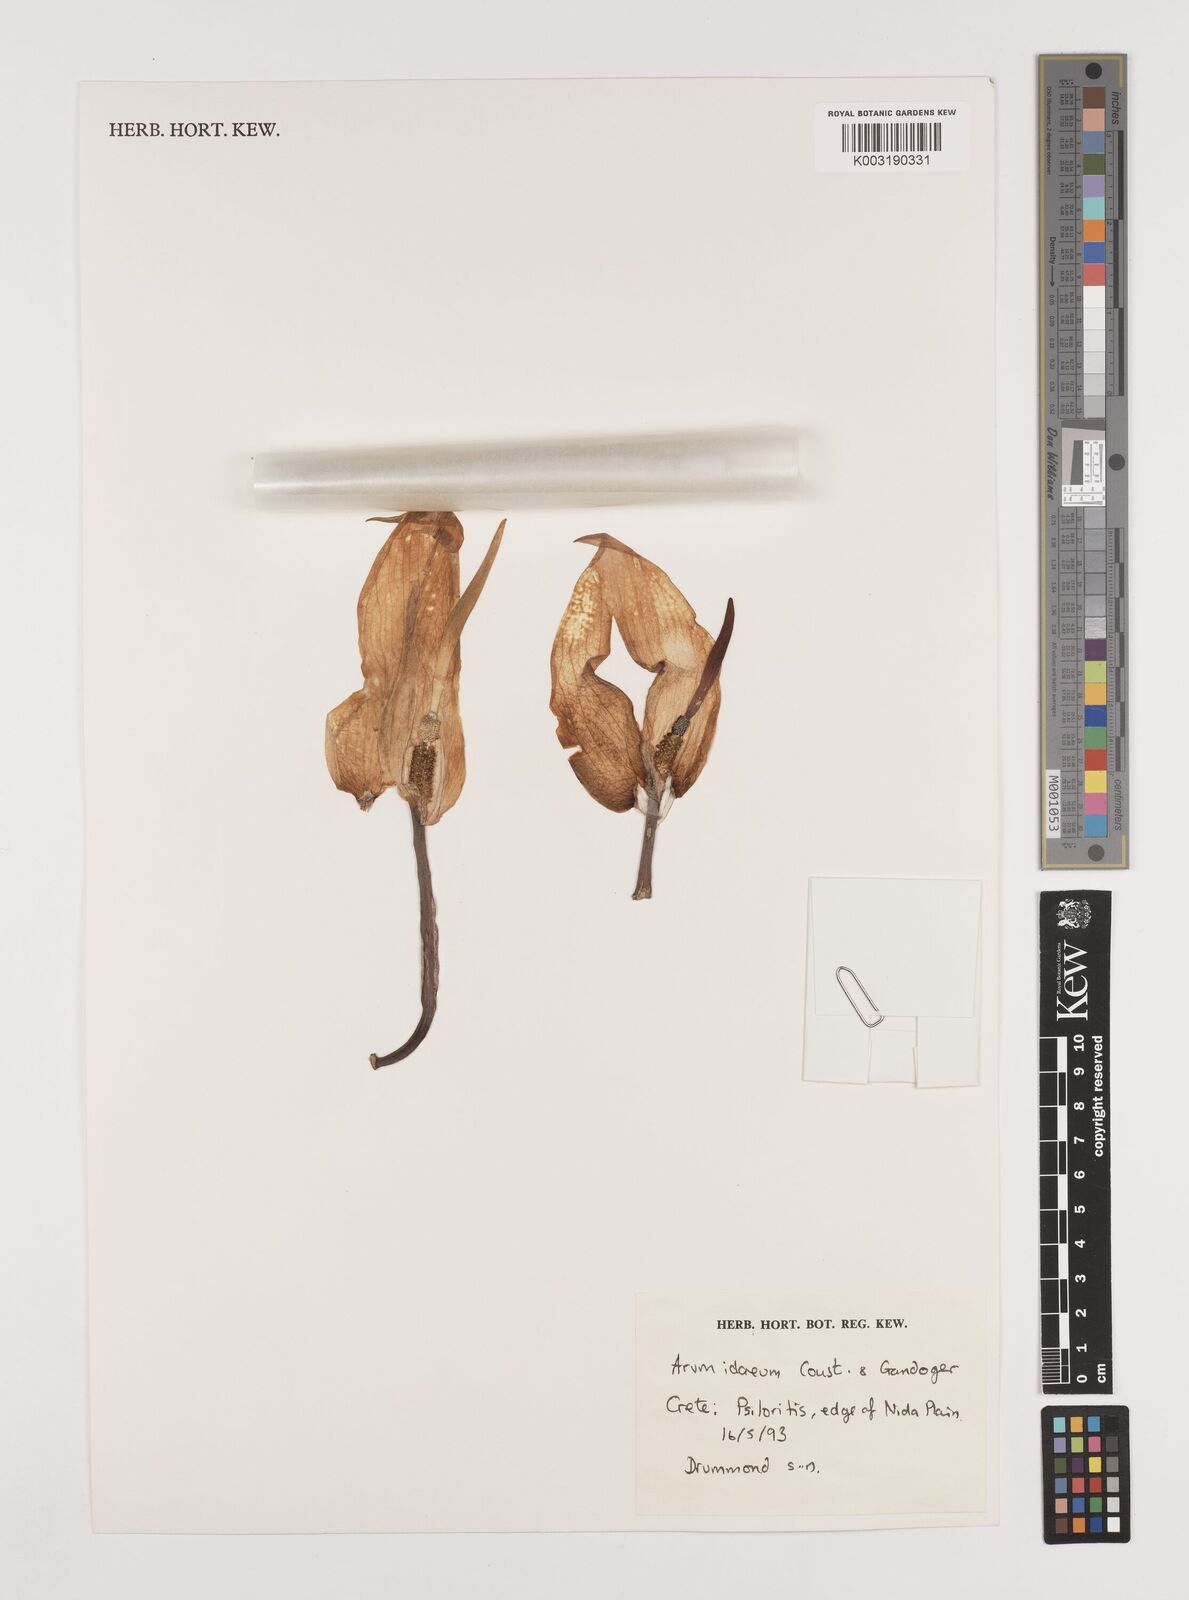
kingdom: Plantae
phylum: Tracheophyta
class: Liliopsida
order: Alismatales
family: Araceae
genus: Arum
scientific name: Arum idaeum
